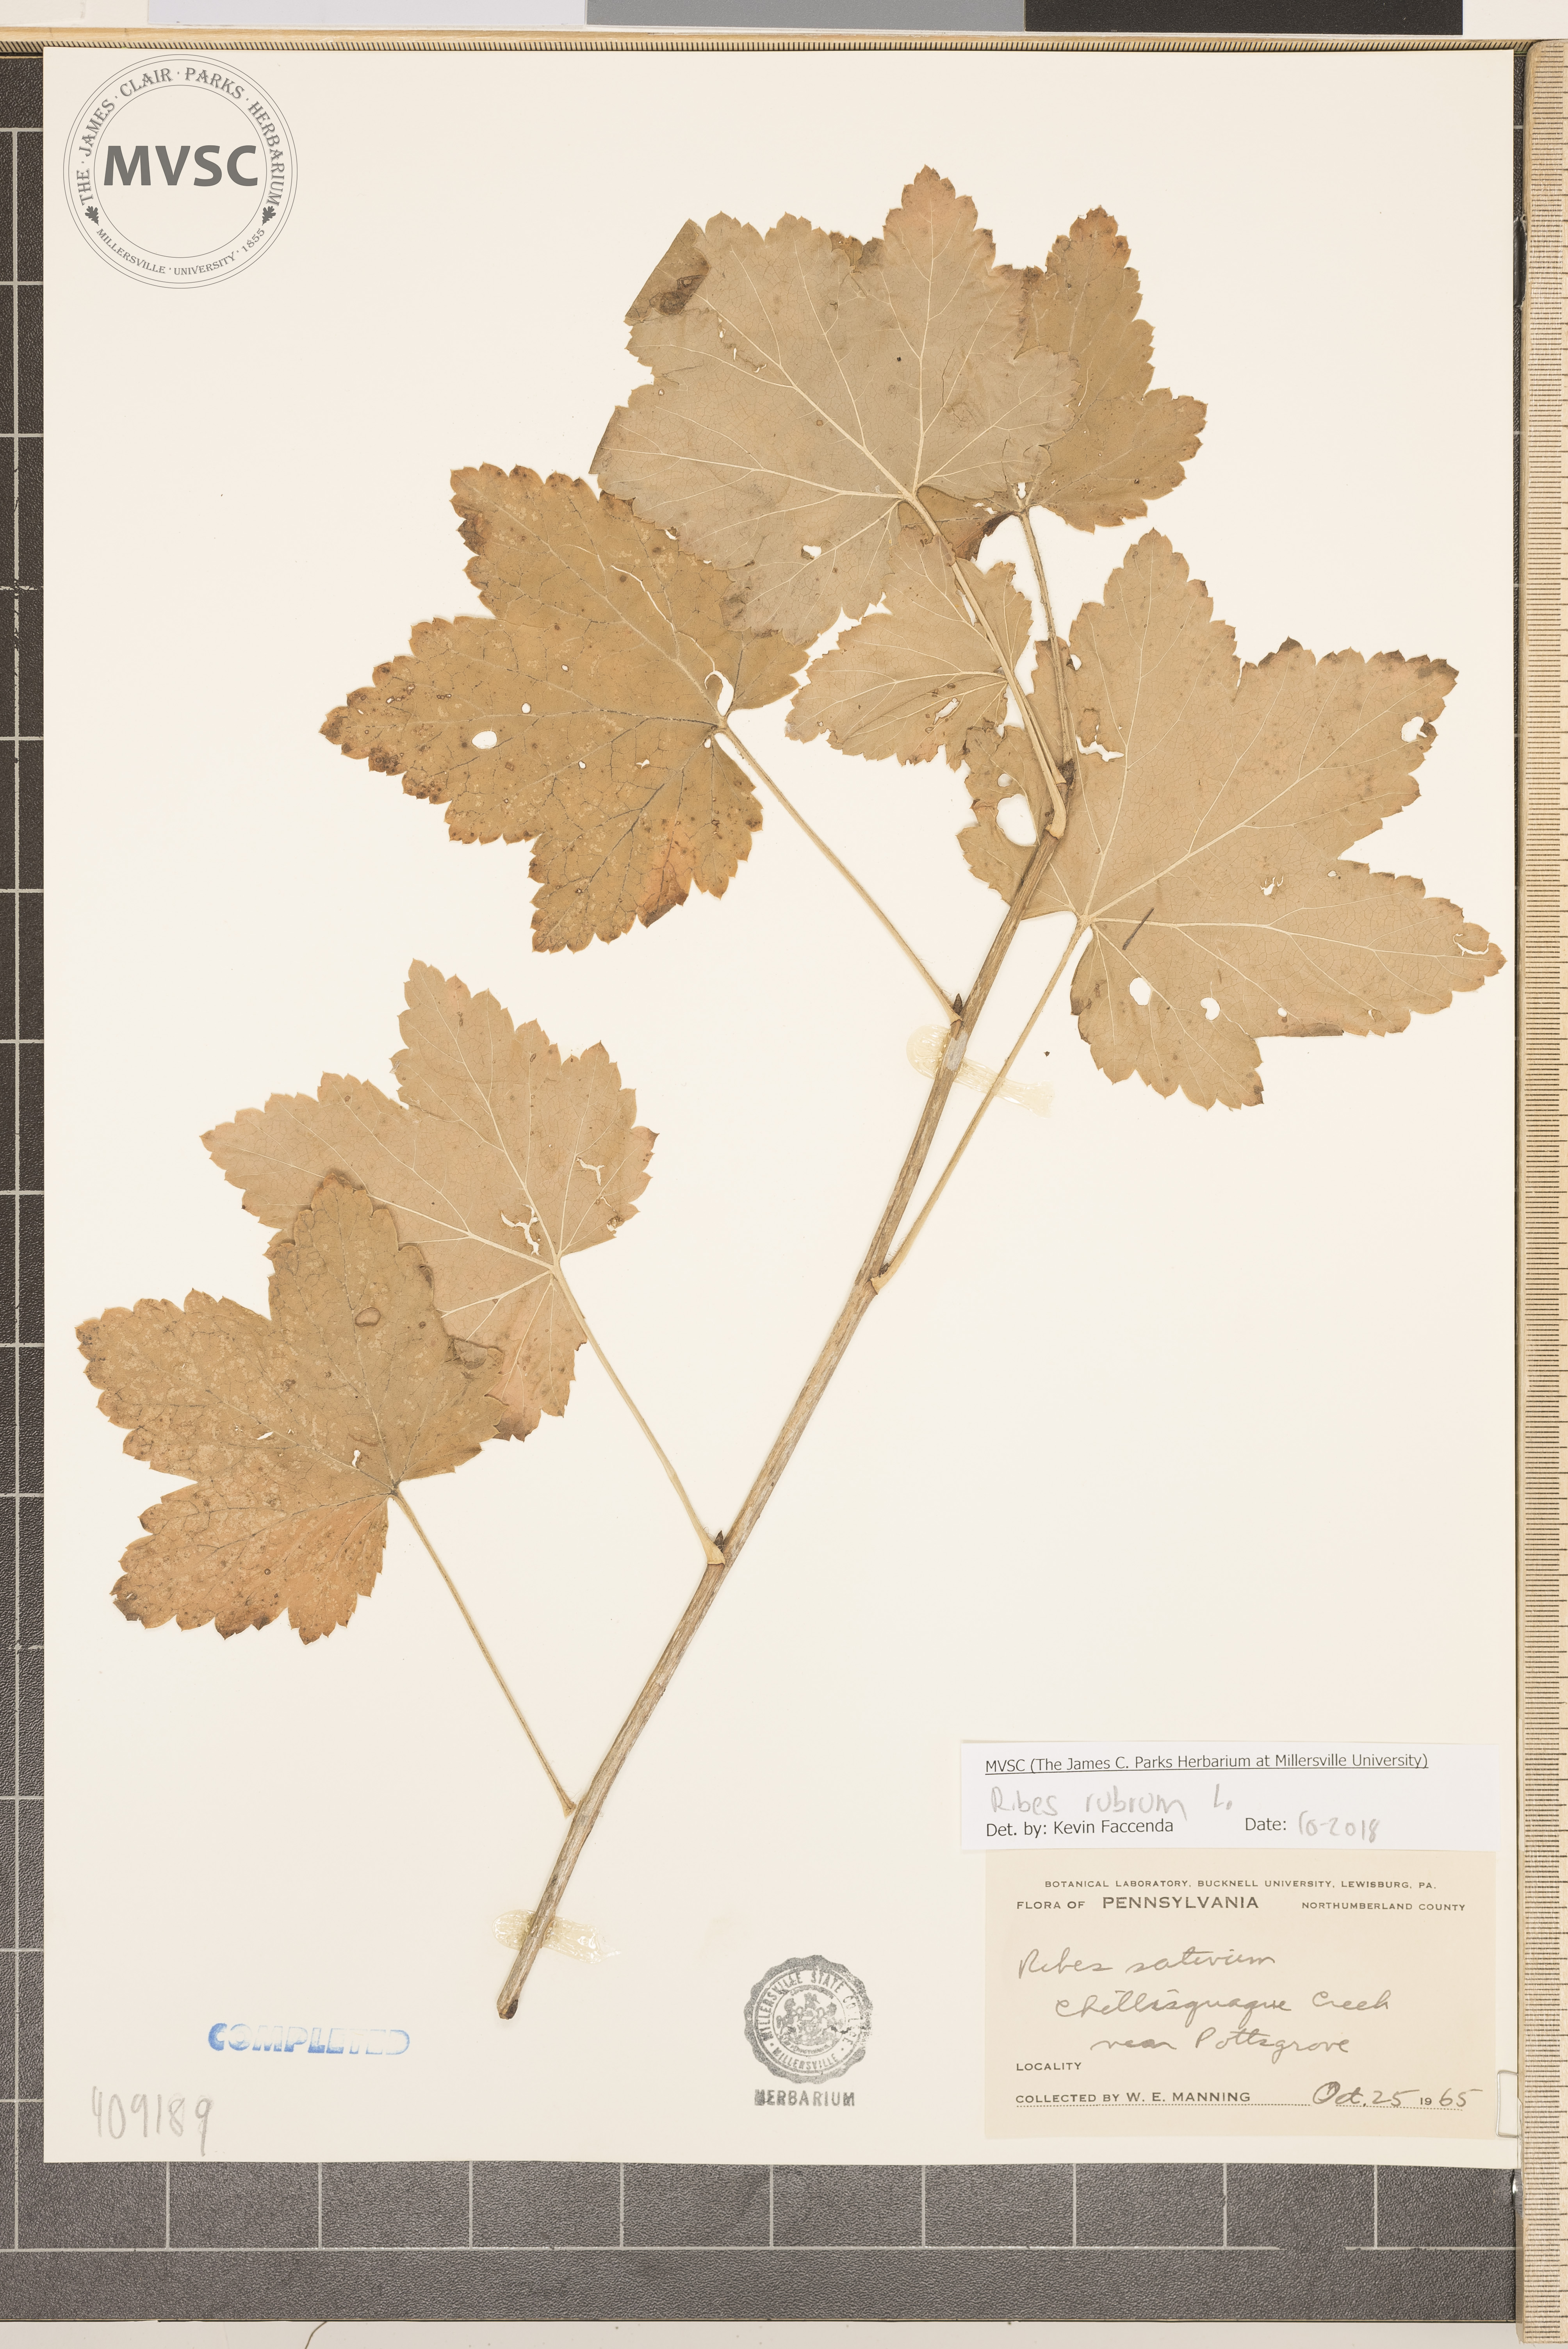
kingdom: Plantae
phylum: Tracheophyta
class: Magnoliopsida
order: Saxifragales
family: Grossulariaceae
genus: Ribes
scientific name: Ribes rubrum
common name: Red currant
